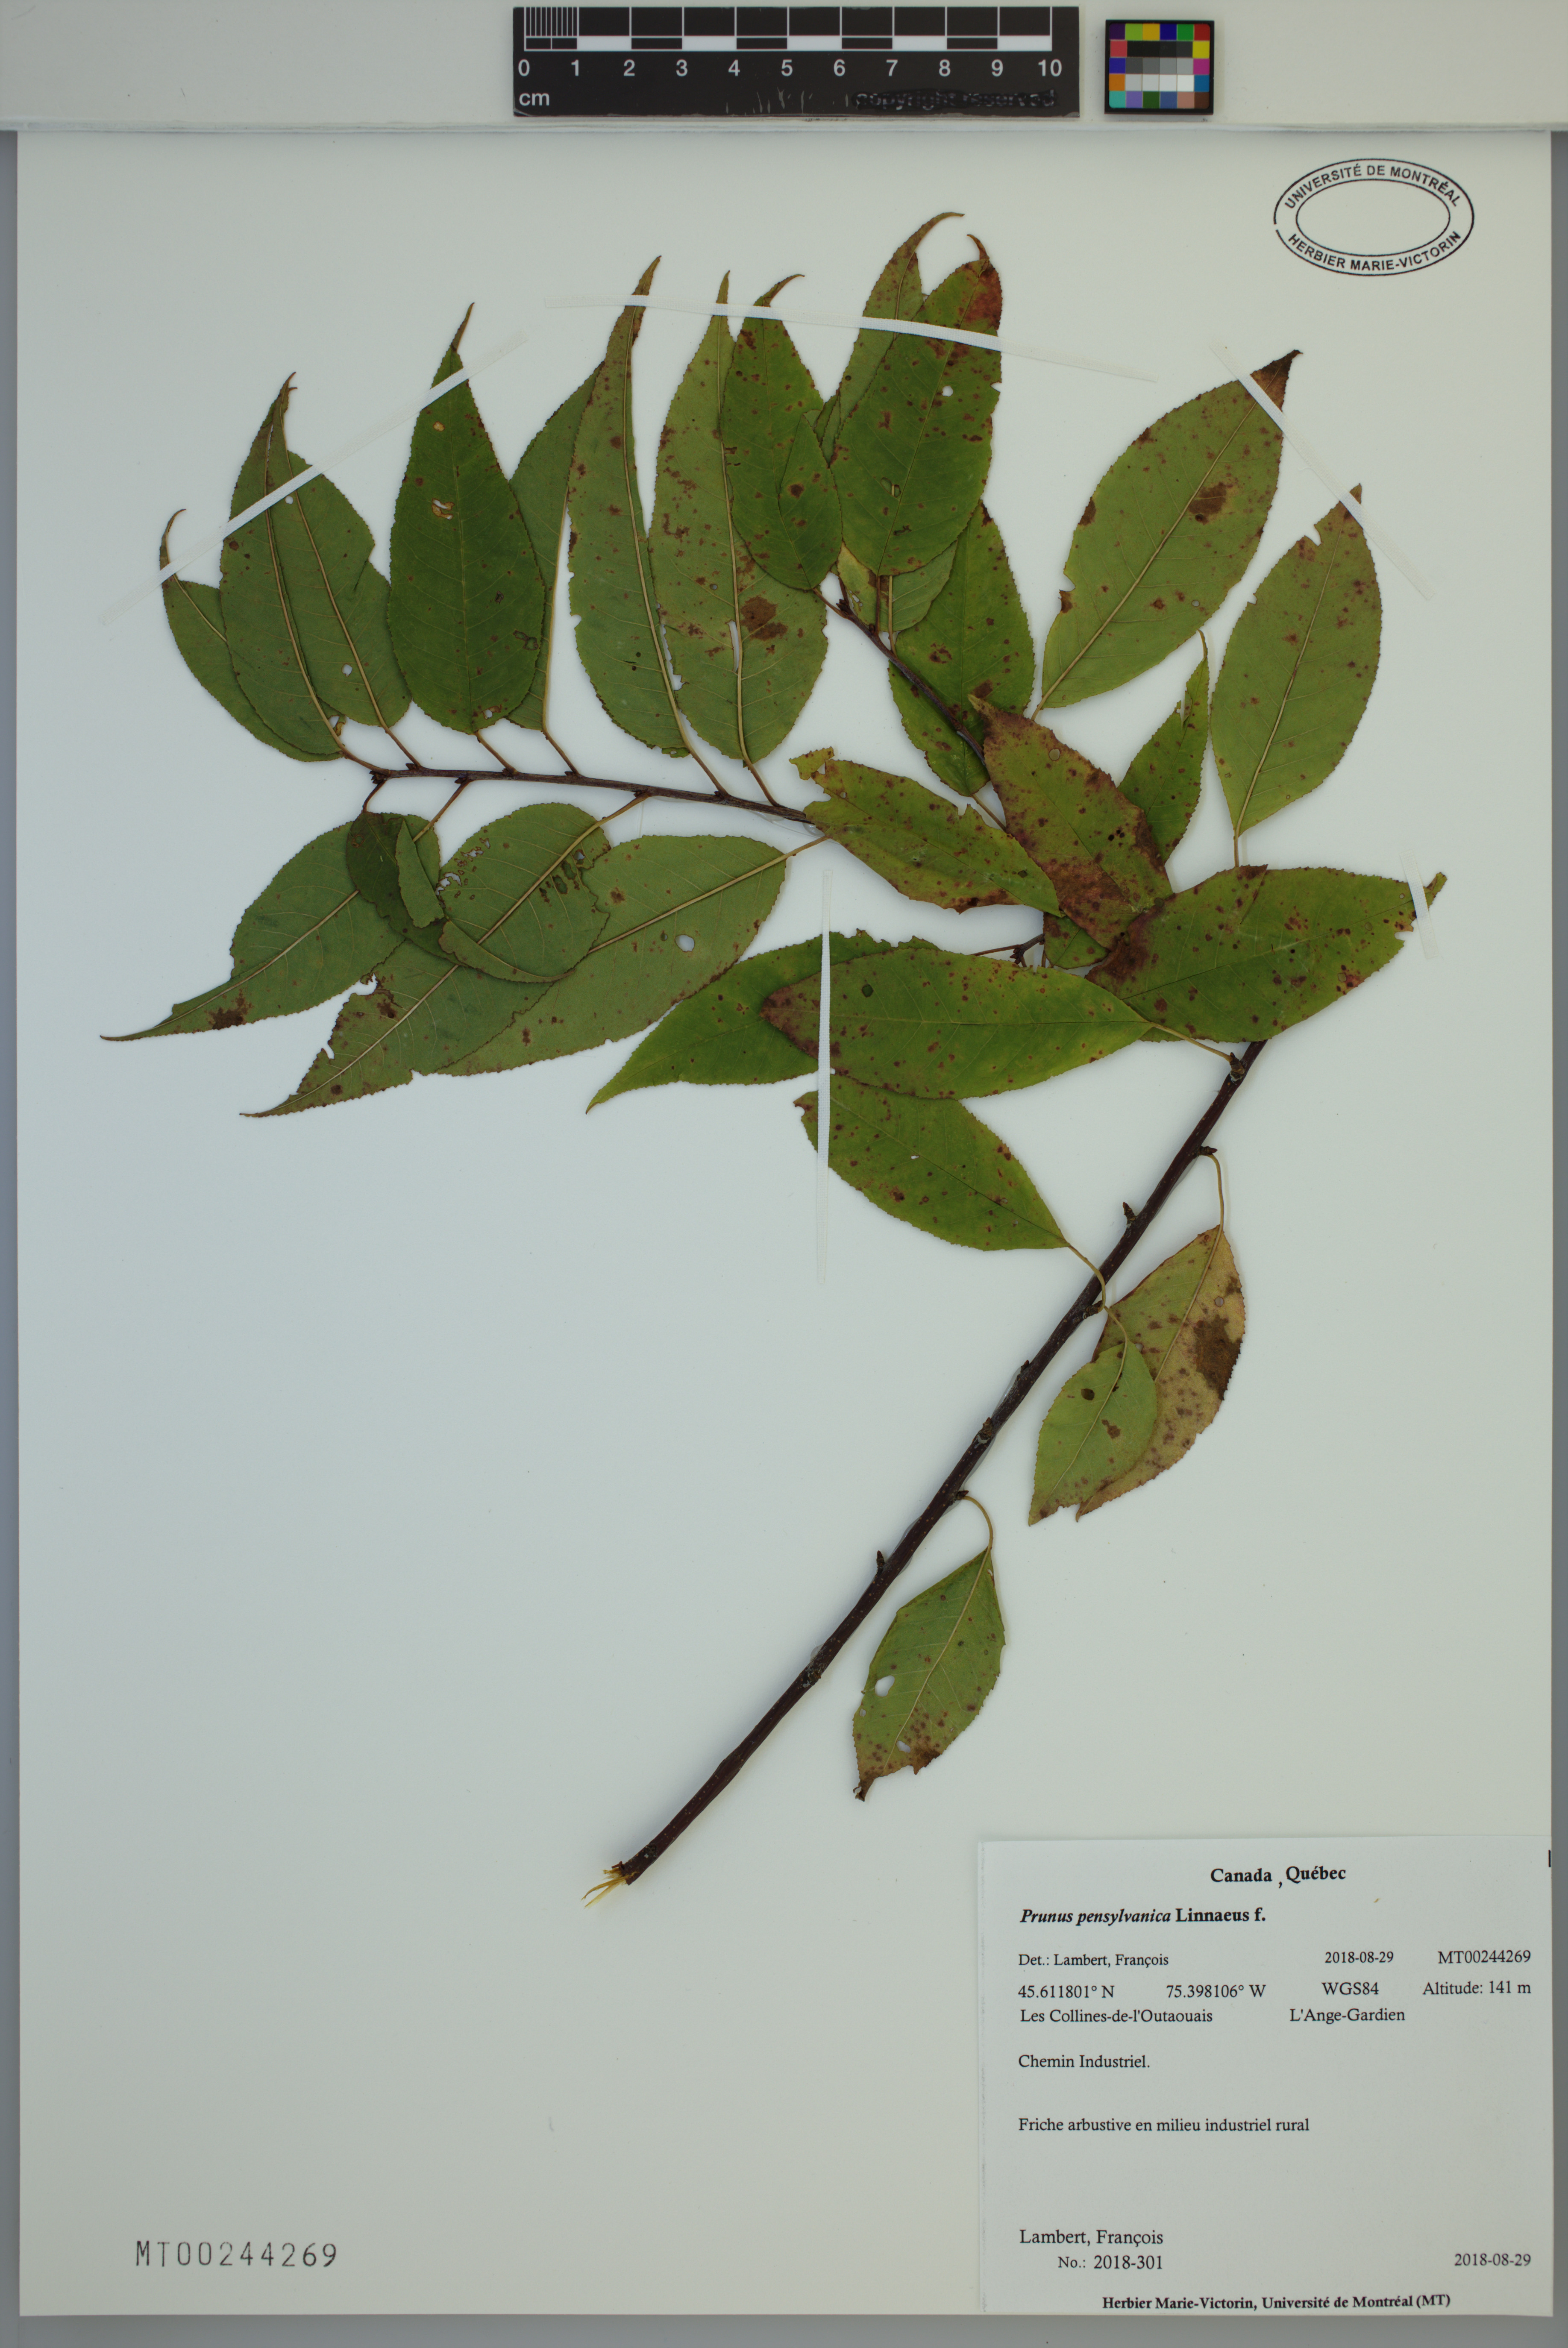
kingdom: Plantae
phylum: Tracheophyta
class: Magnoliopsida
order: Rosales
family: Rosaceae
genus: Prunus
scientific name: Prunus pensylvanica
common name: Pin cherry
